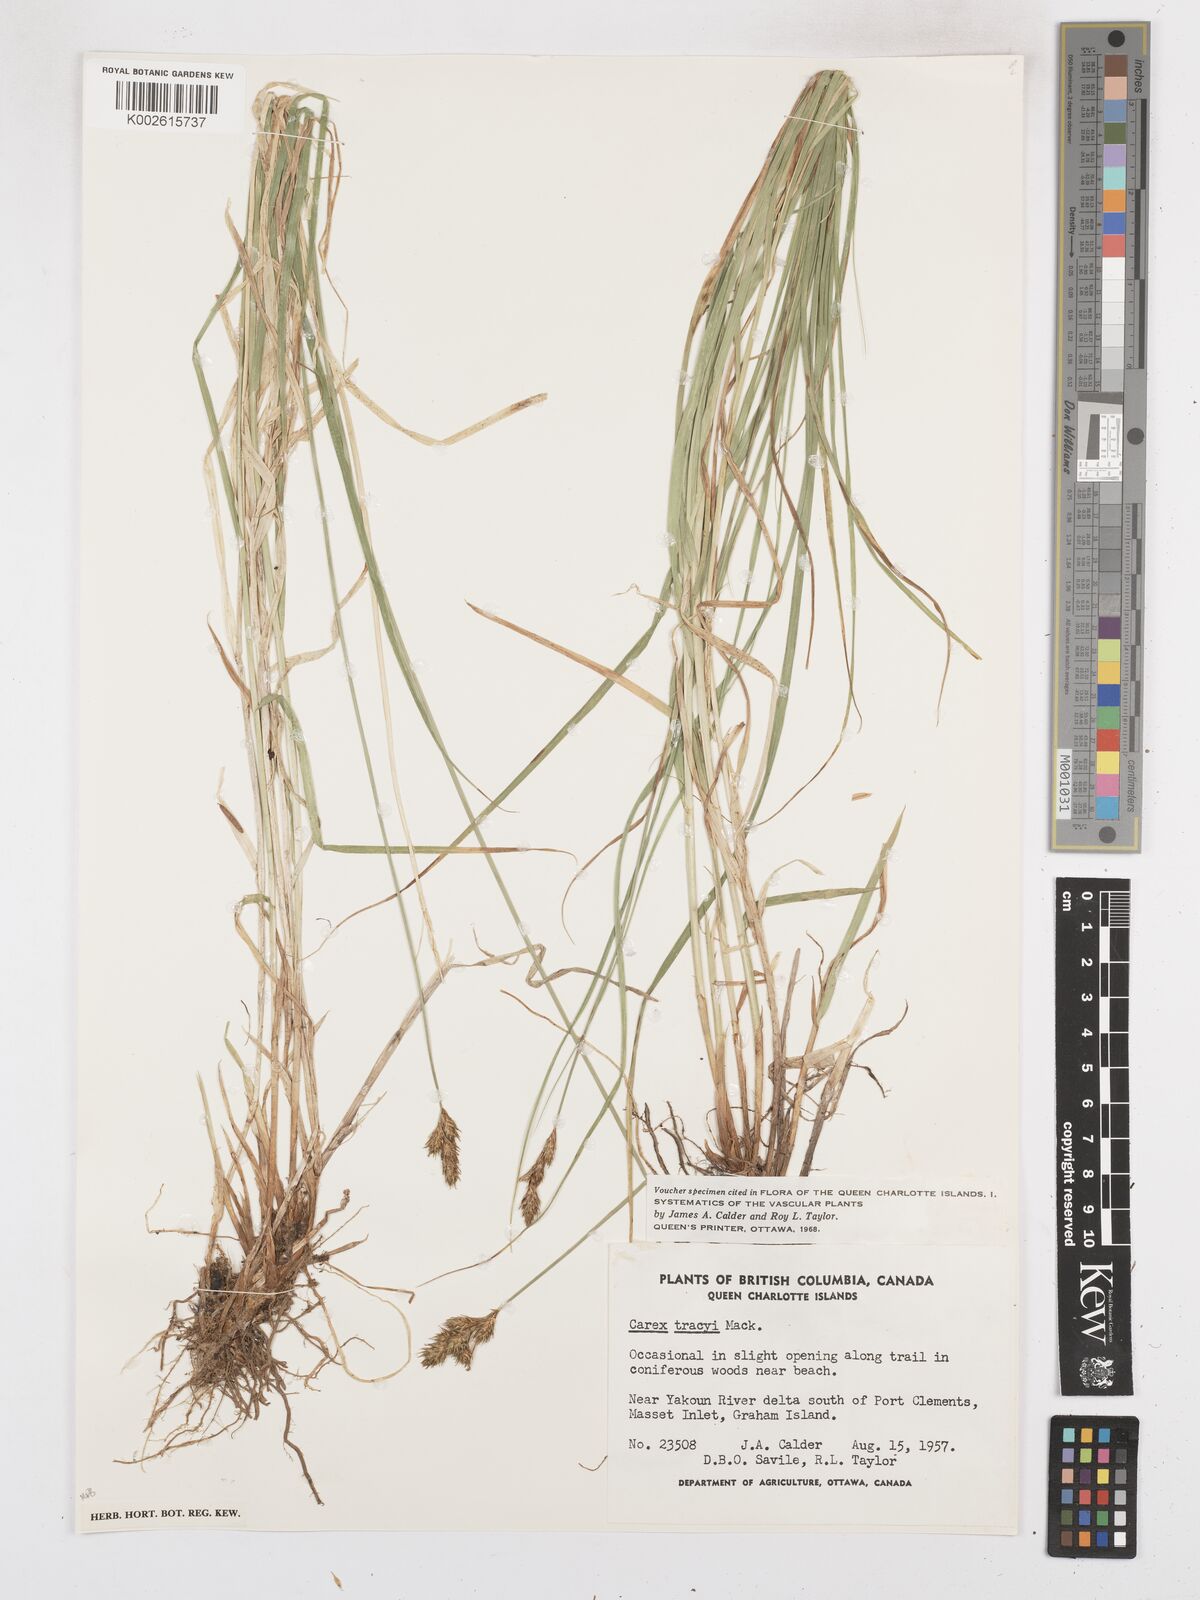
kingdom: Plantae
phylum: Tracheophyta
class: Liliopsida
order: Poales
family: Cyperaceae
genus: Carex
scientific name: Carex leporina
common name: Oval sedge
